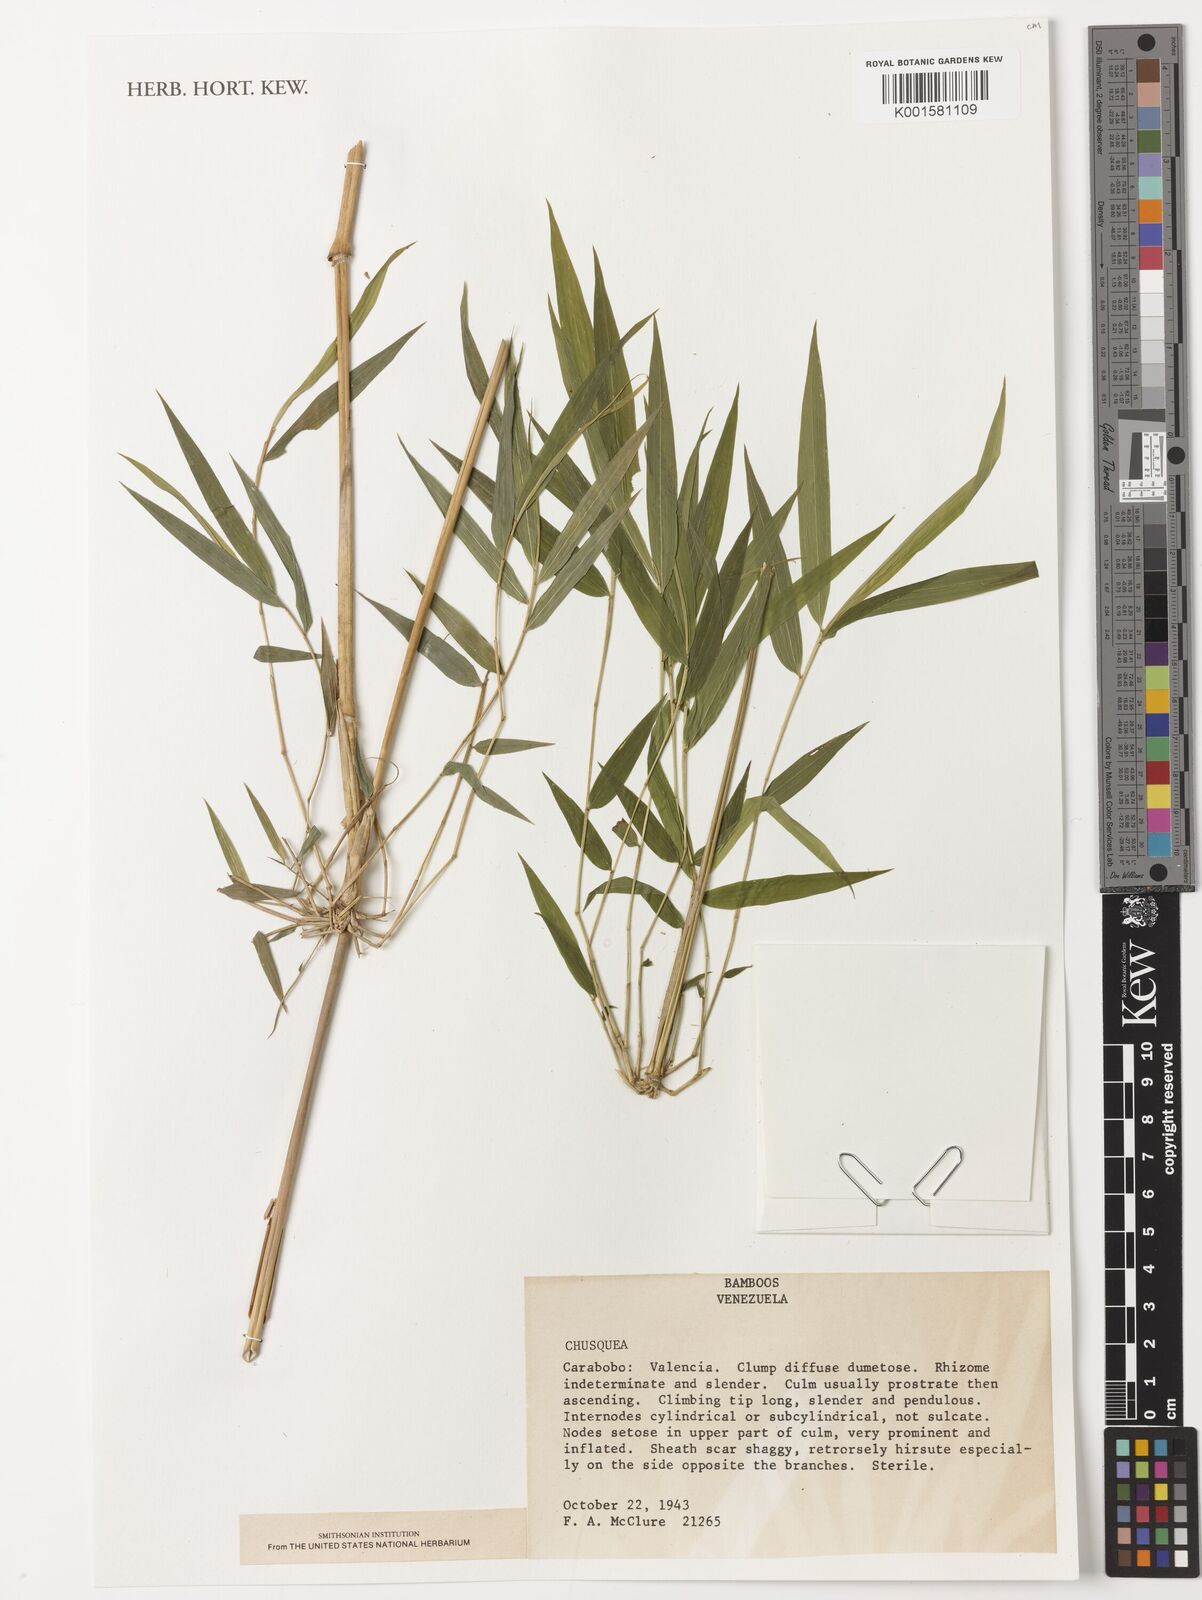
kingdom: Plantae
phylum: Tracheophyta
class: Liliopsida
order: Poales
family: Poaceae
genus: Chusquea
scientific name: Chusquea
